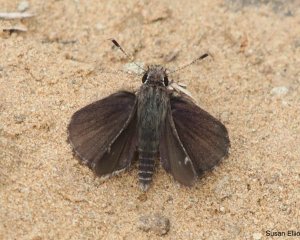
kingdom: Animalia
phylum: Arthropoda
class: Insecta
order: Lepidoptera
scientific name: Lepidoptera
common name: Butterflies
